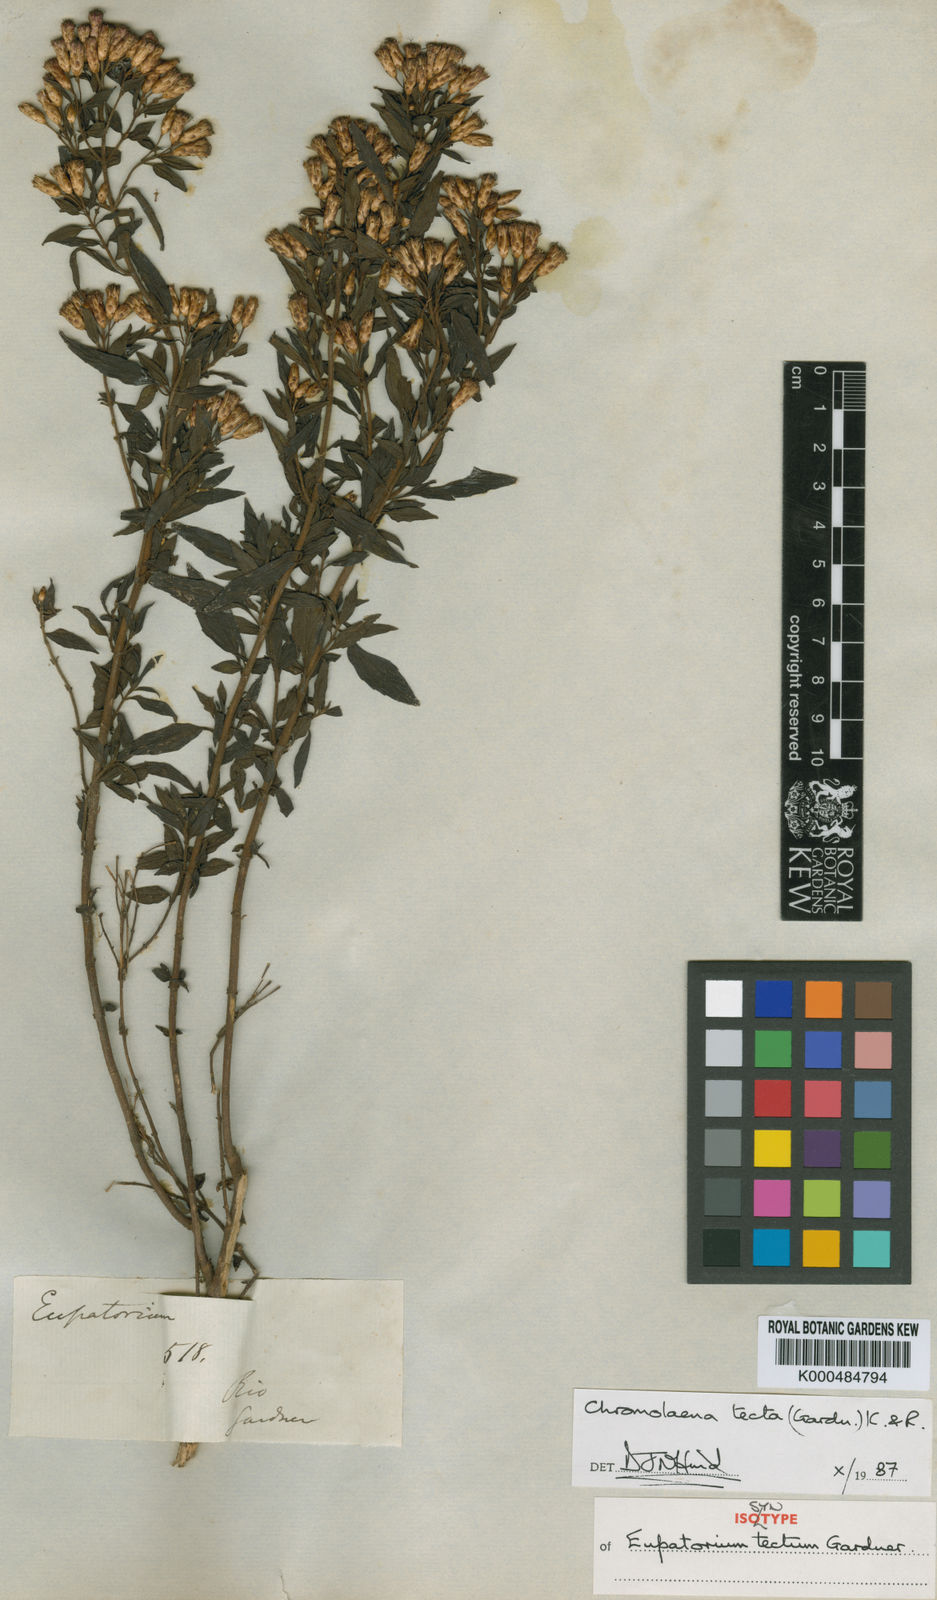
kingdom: Plantae
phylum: Tracheophyta
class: Magnoliopsida
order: Asterales
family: Asteraceae
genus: Chromolaena
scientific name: Chromolaena tecta
